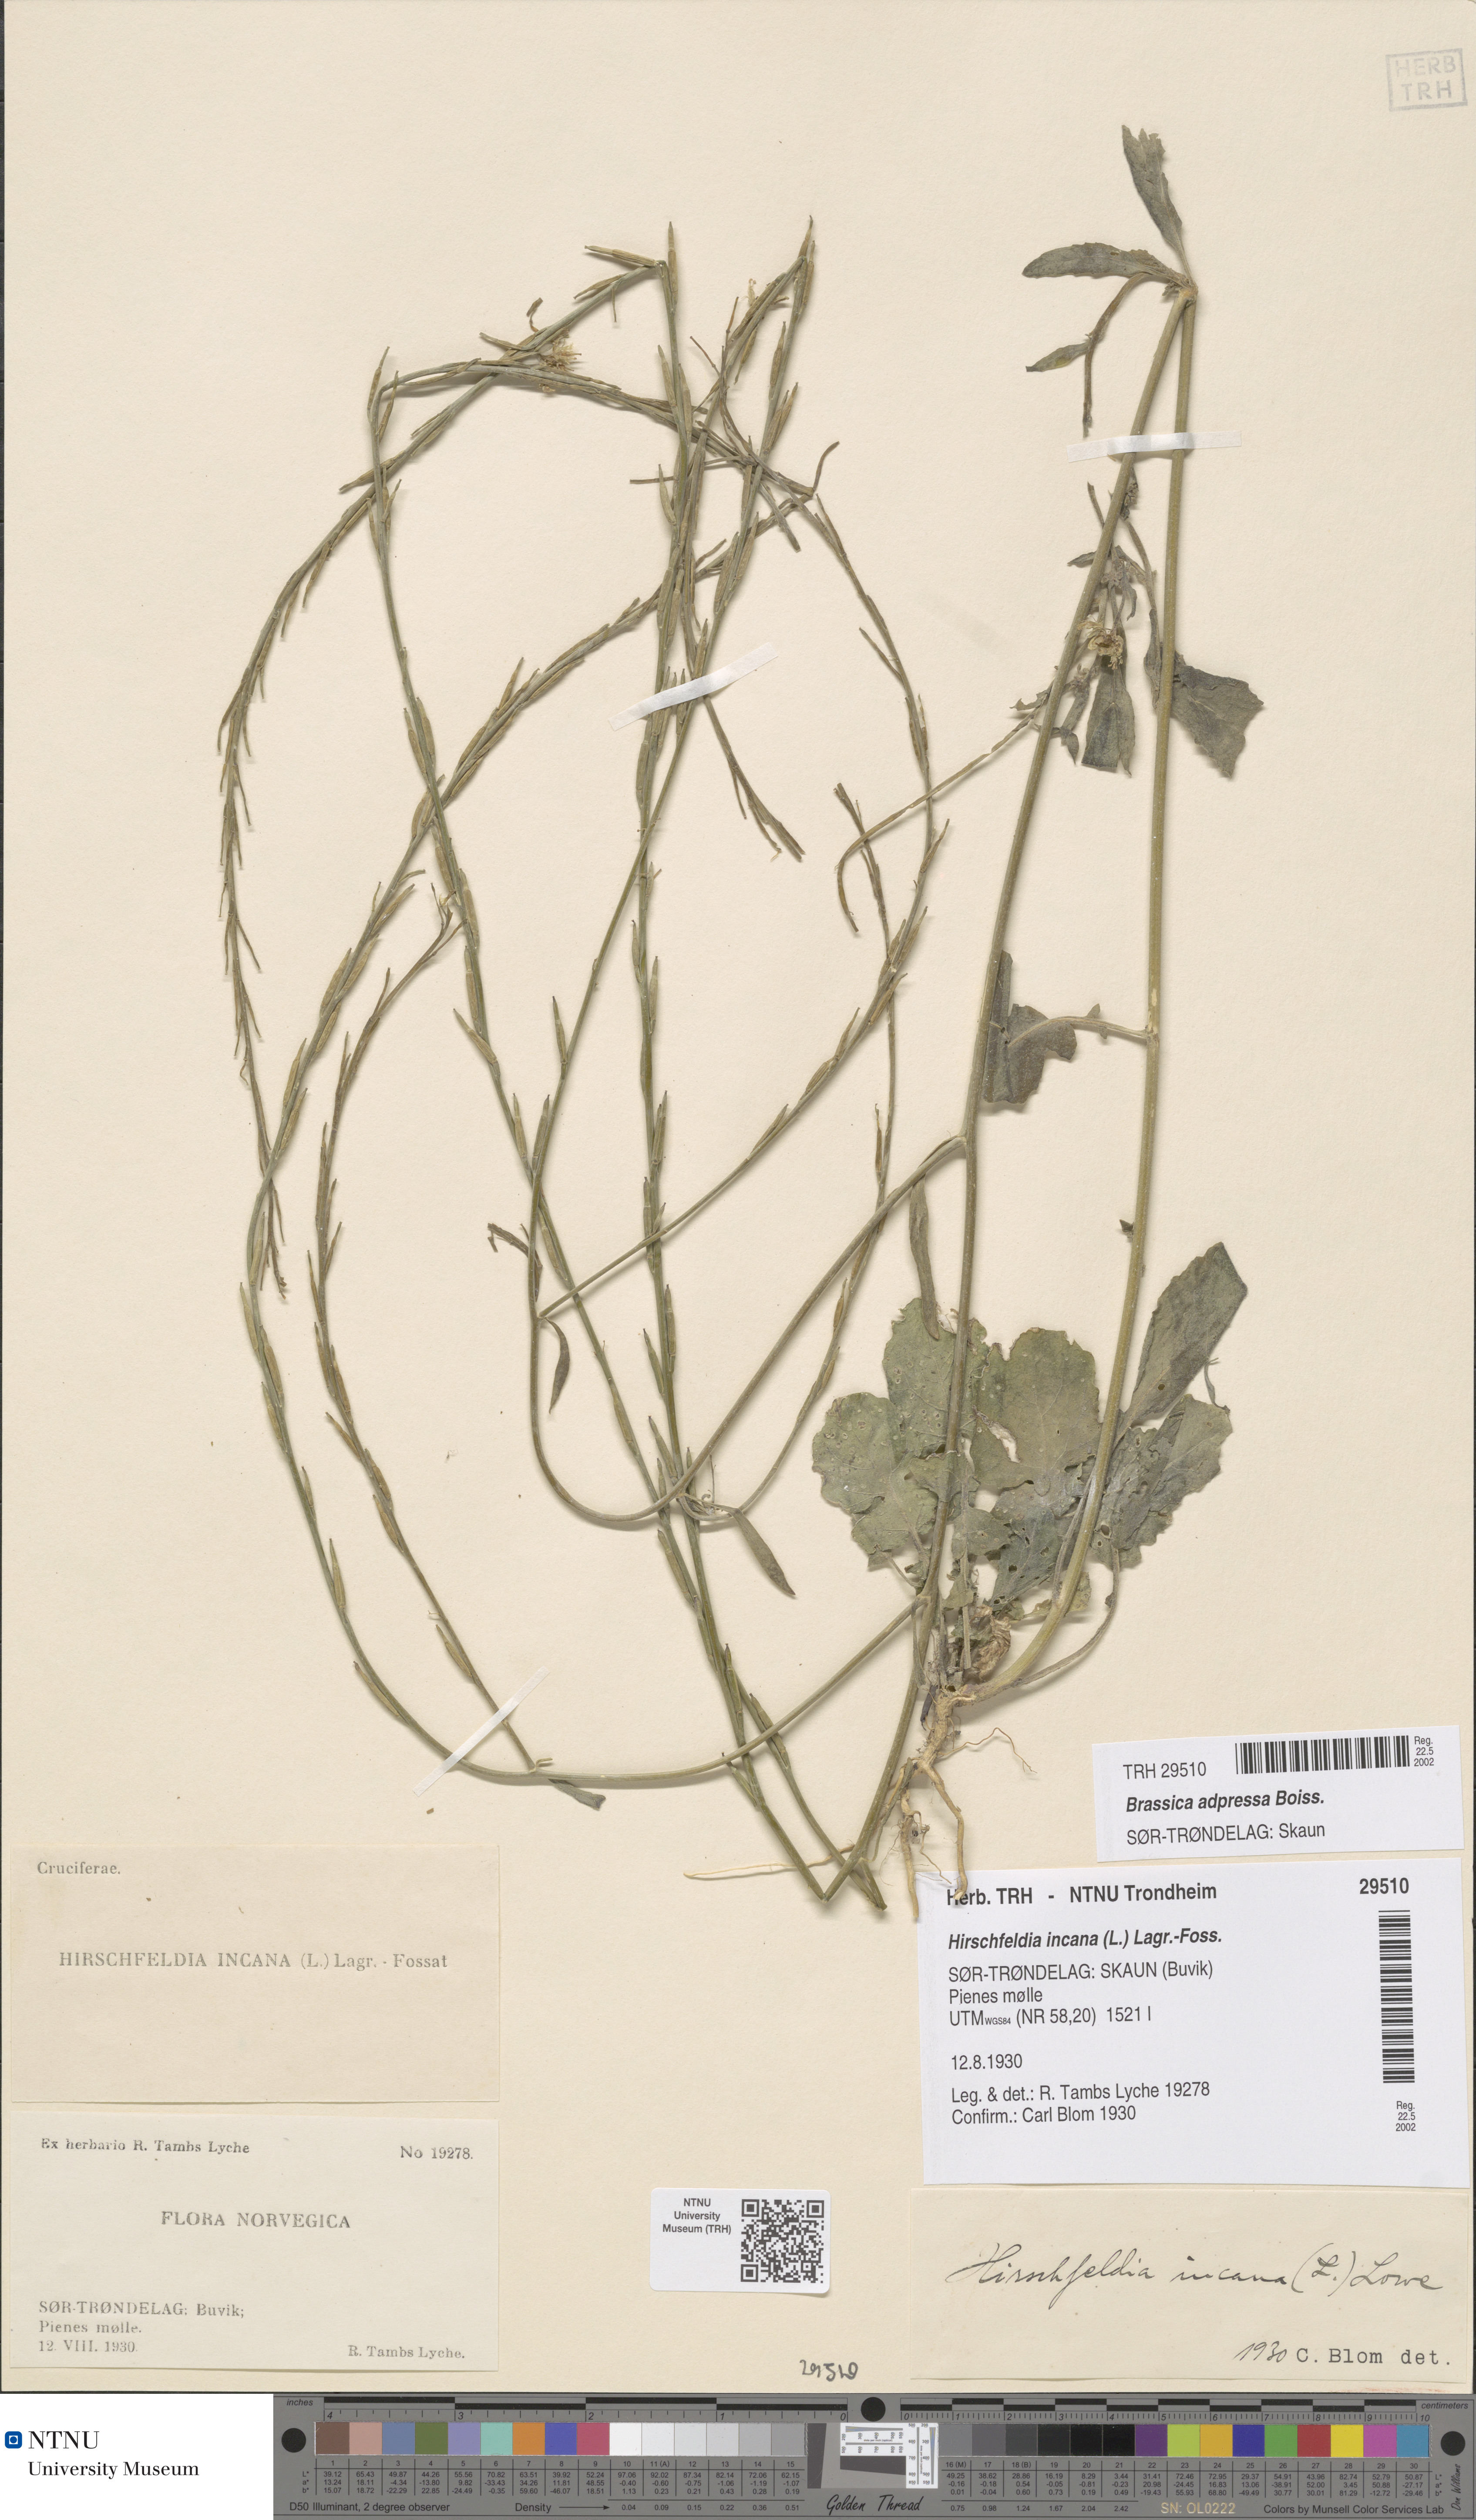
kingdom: Plantae
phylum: Tracheophyta
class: Magnoliopsida
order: Brassicales
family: Brassicaceae
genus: Hirschfeldia
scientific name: Hirschfeldia incana
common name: Hoary mustard
